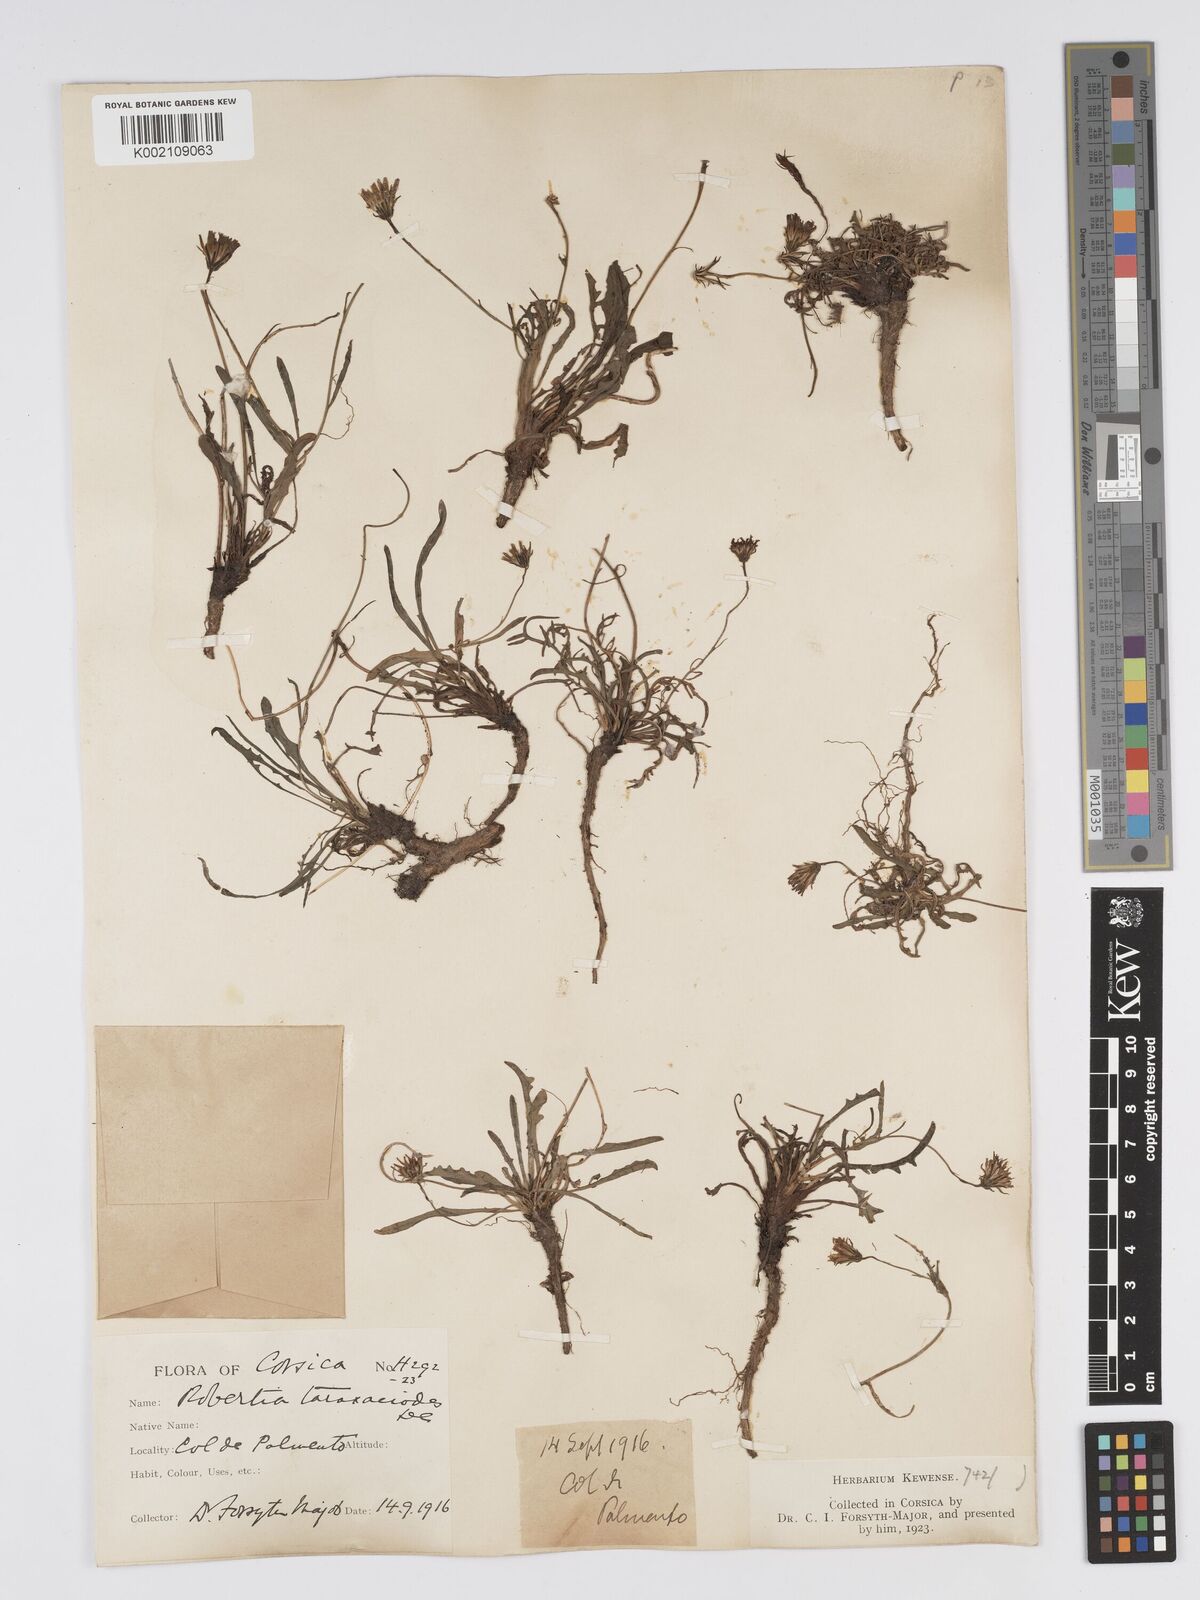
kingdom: Plantae
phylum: Tracheophyta
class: Magnoliopsida
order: Asterales
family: Asteraceae
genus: Crepis
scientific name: Crepis
